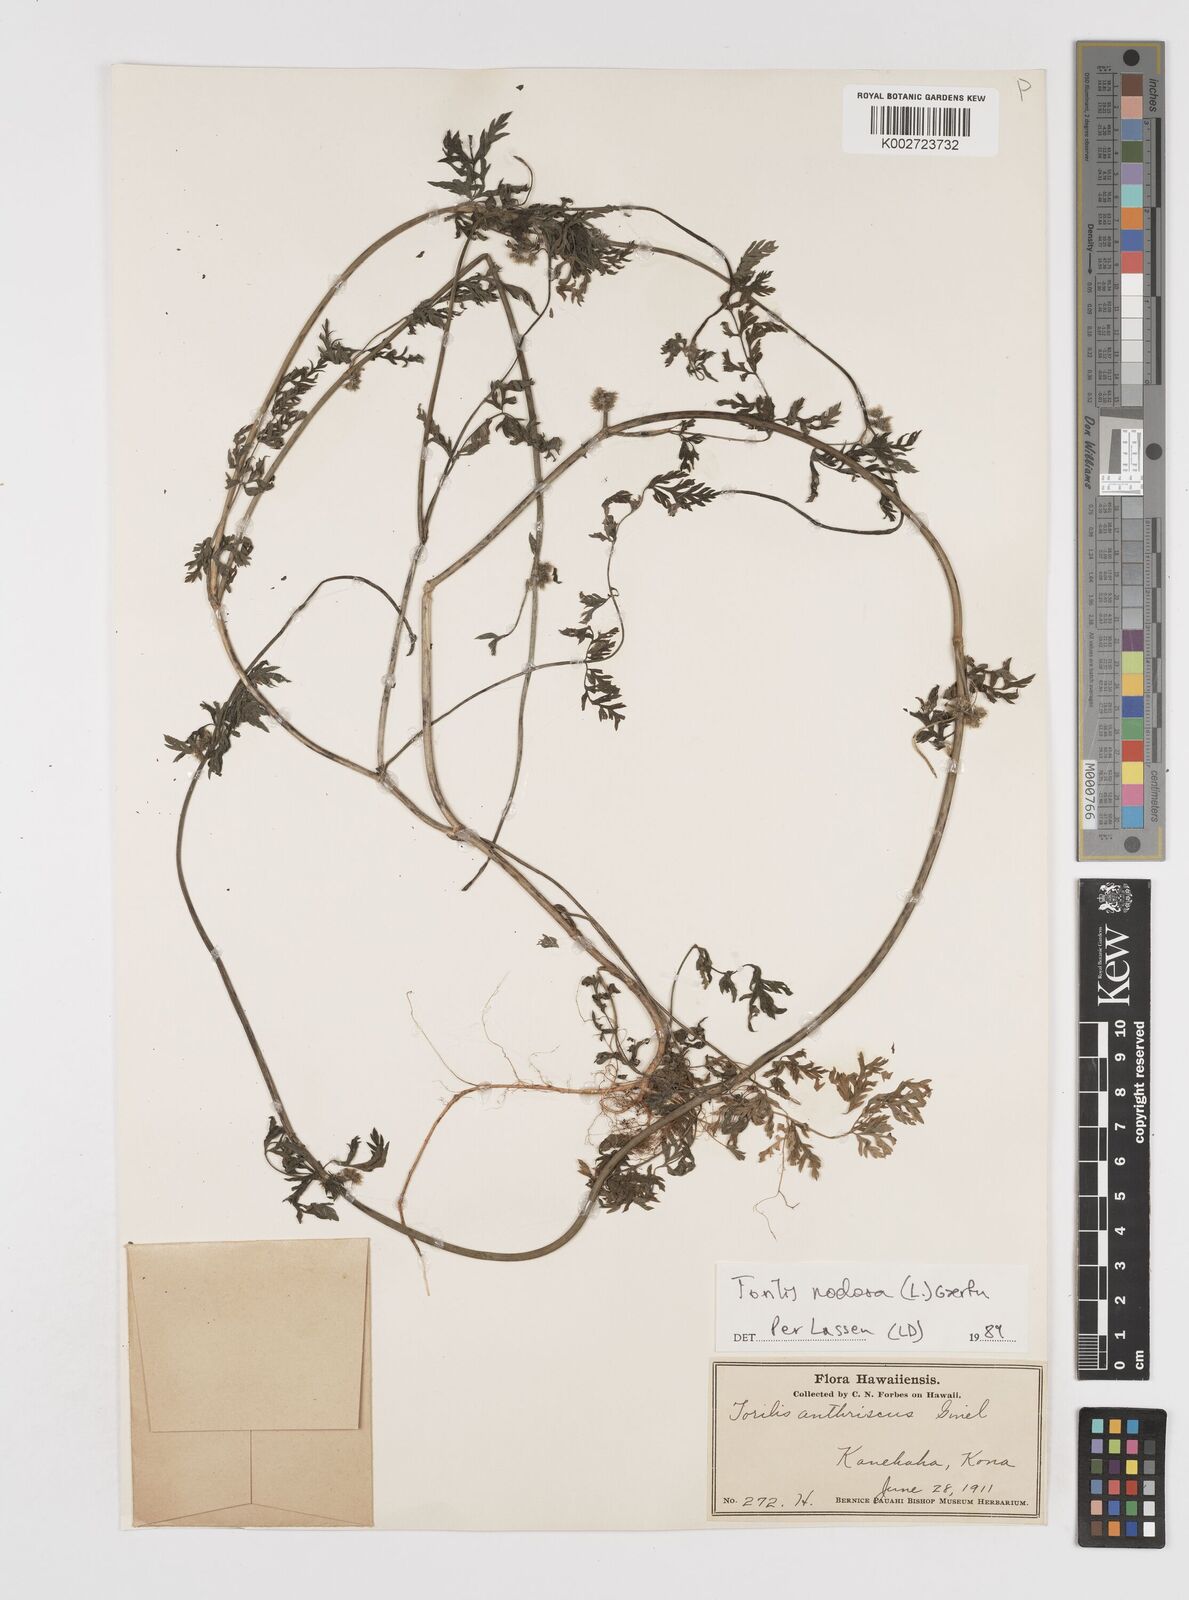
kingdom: Plantae
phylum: Tracheophyta
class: Magnoliopsida
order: Apiales
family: Apiaceae
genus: Torilis
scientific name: Torilis nodosa
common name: Knotted hedge-parsley
